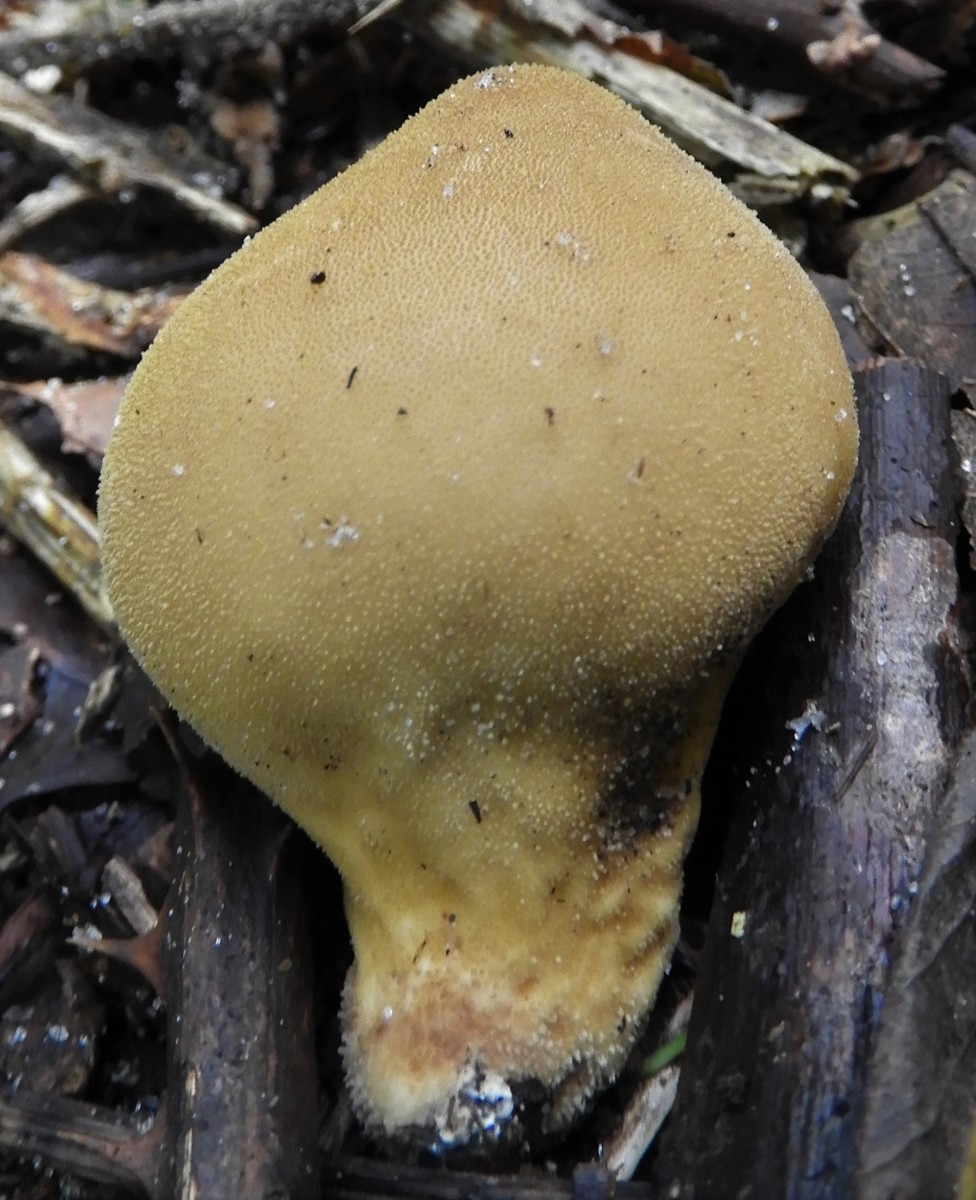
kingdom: Fungi
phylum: Basidiomycota
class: Agaricomycetes
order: Agaricales
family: Lycoperdaceae
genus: Apioperdon
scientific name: Apioperdon pyriforme
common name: pære-støvbold
